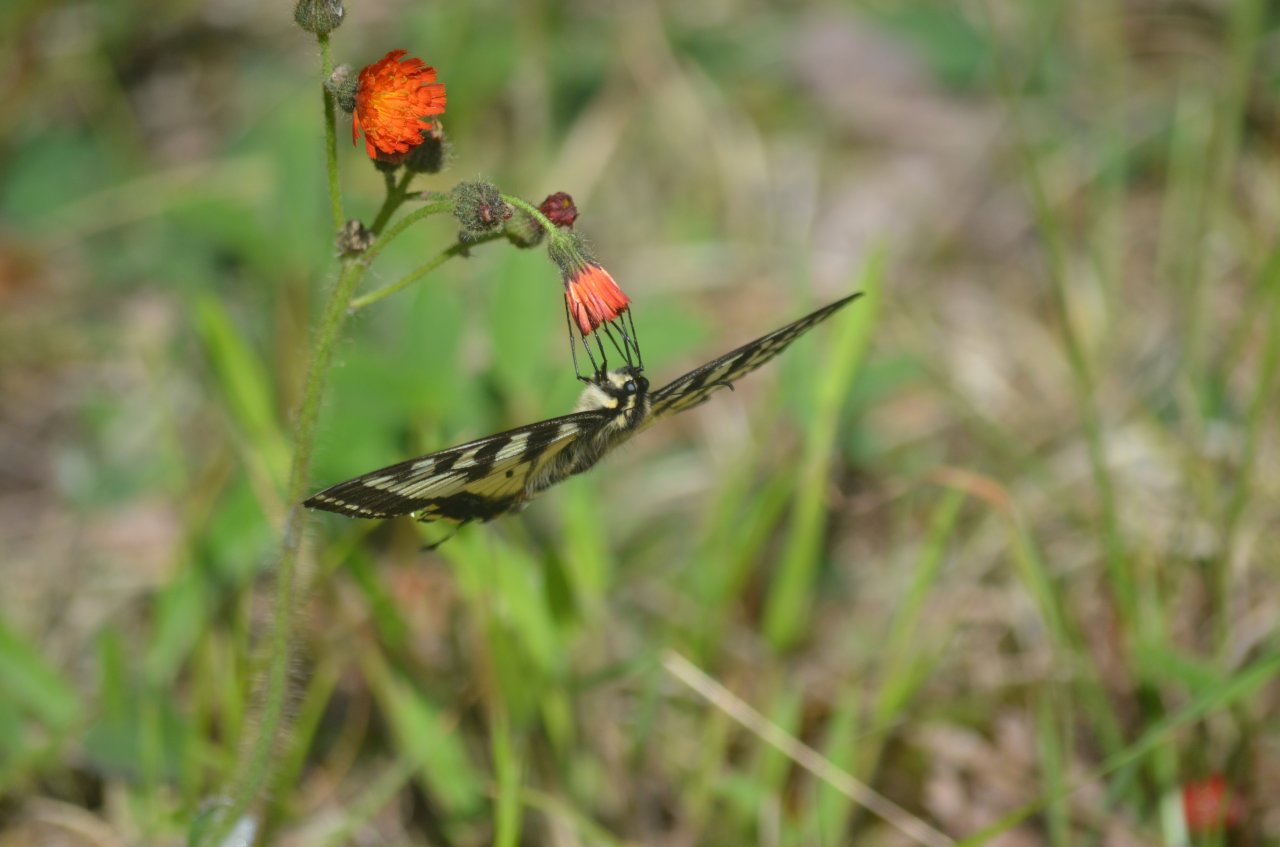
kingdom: Animalia
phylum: Arthropoda
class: Insecta
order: Lepidoptera
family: Papilionidae
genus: Pterourus
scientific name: Pterourus canadensis
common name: Canadian Tiger Swallowtail
